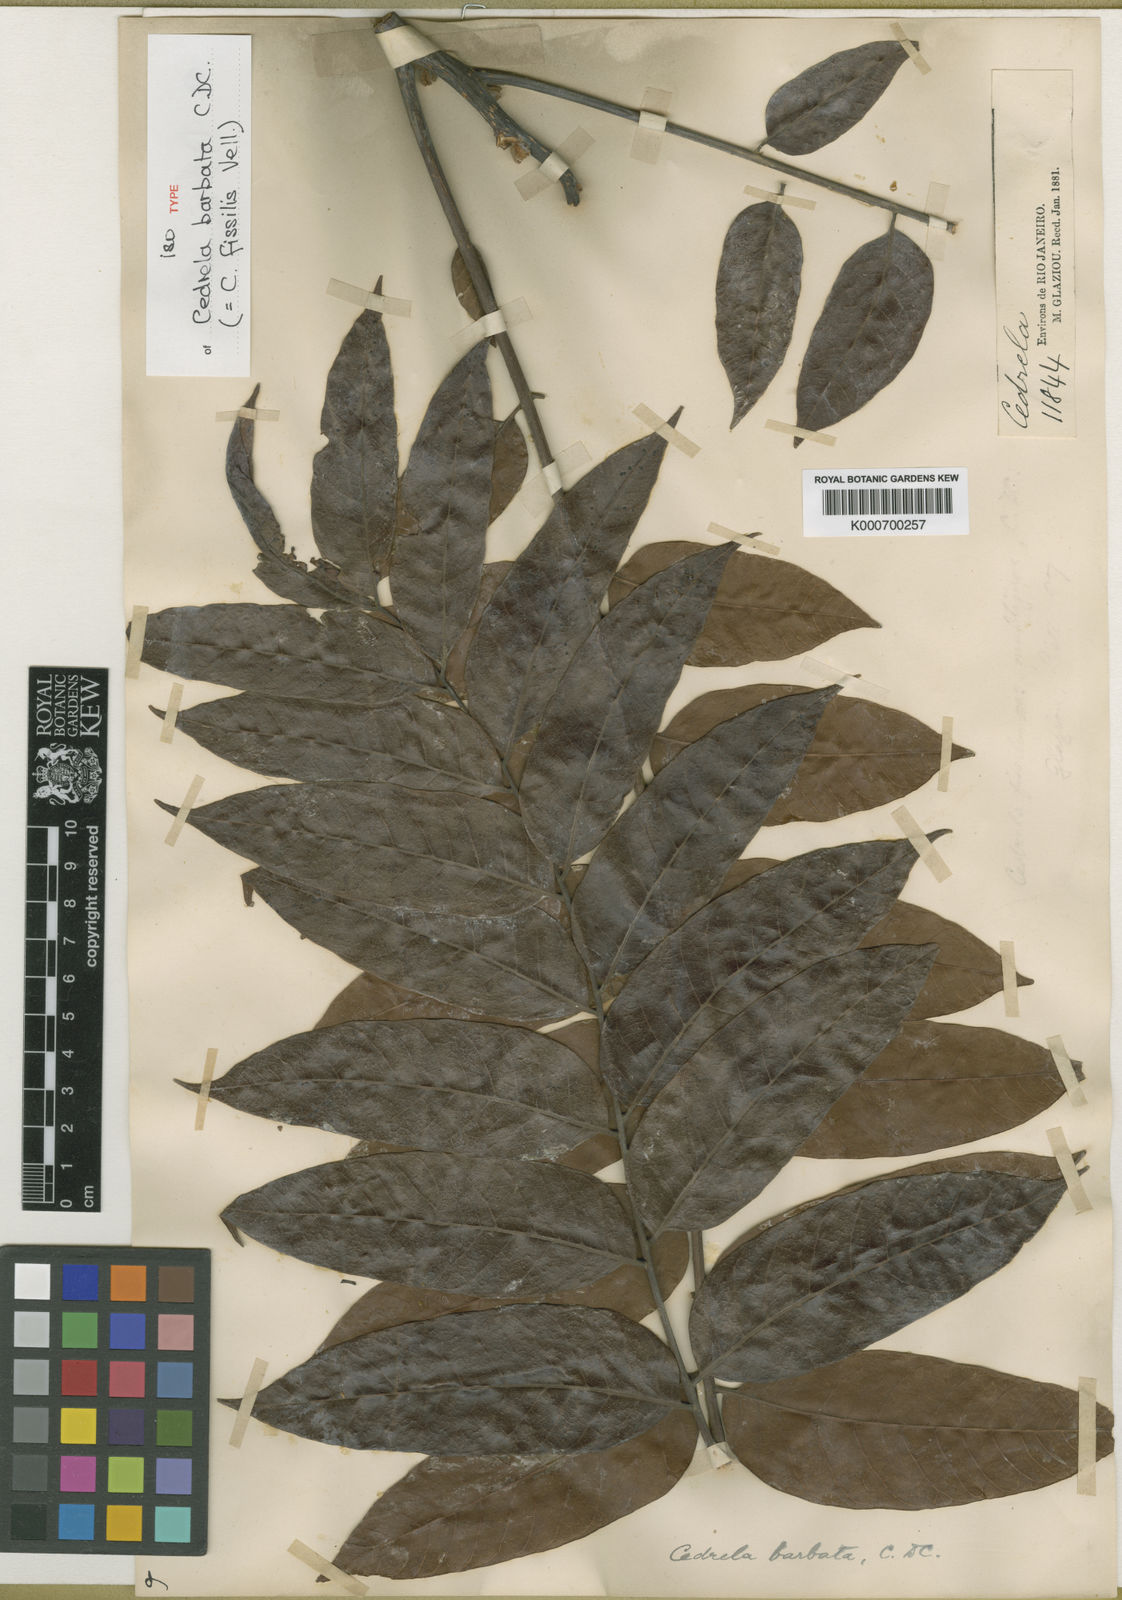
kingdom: Plantae
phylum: Tracheophyta
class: Magnoliopsida
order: Sapindales
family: Meliaceae
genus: Cedrela
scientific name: Cedrela fissilis
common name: Argentine cedar
